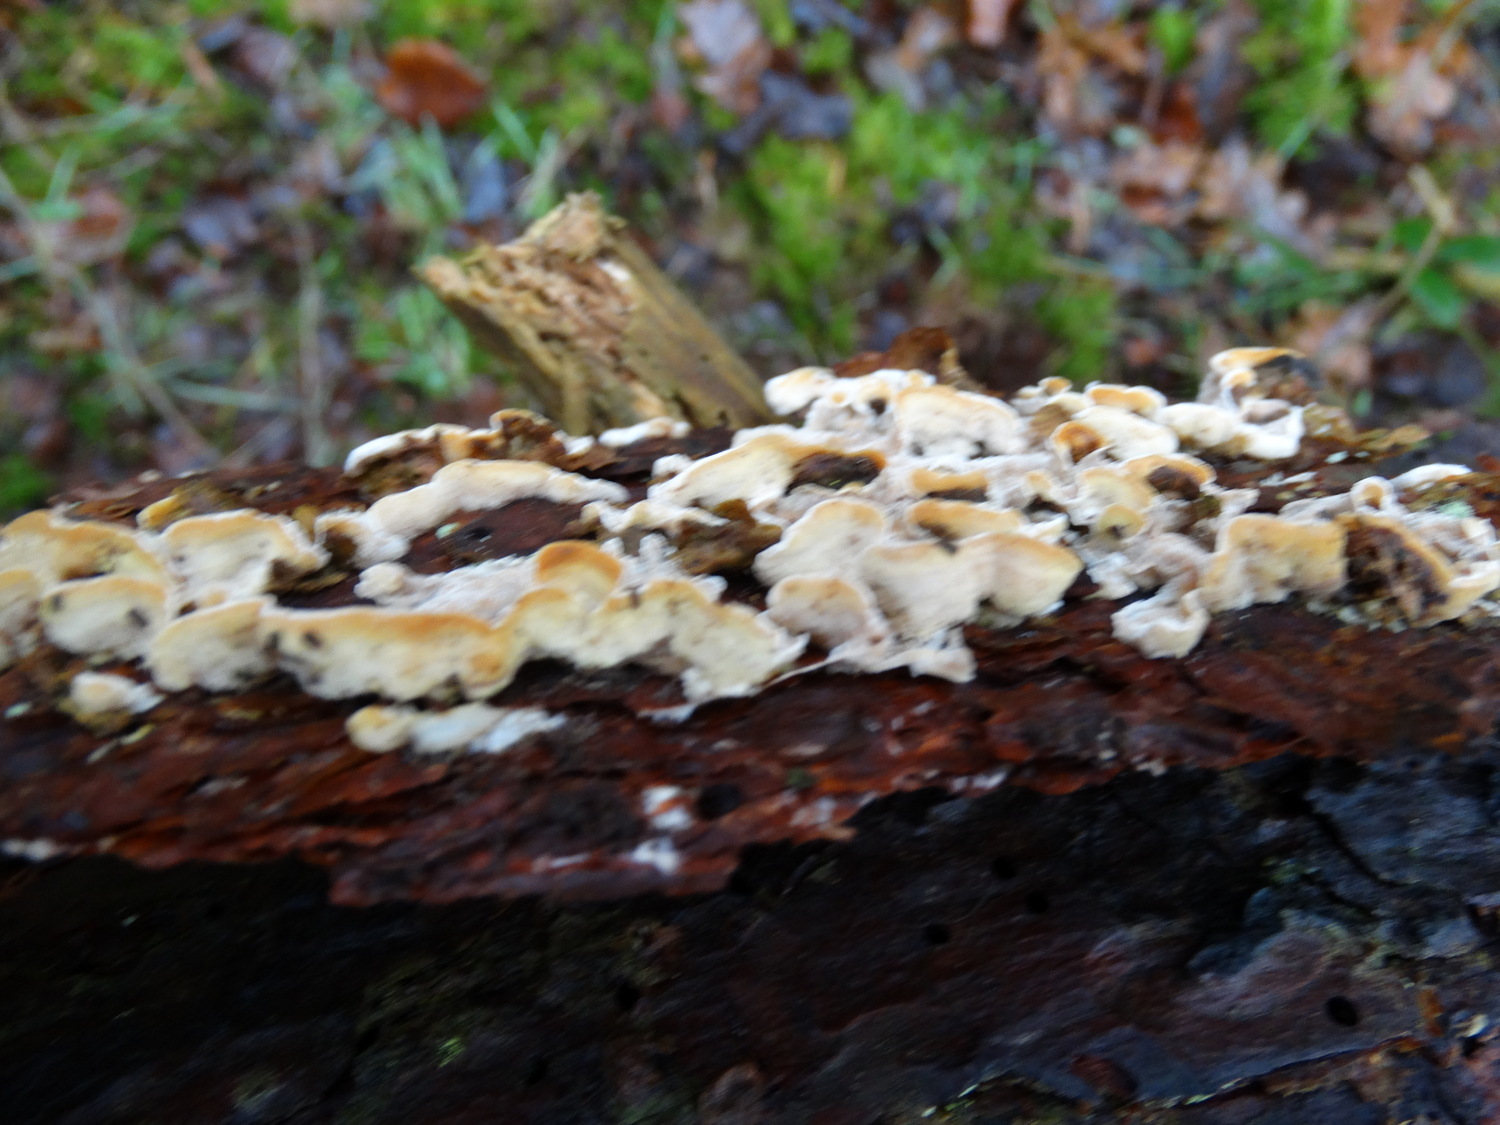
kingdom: Fungi
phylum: Basidiomycota
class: Agaricomycetes
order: Polyporales
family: Incrustoporiaceae
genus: Skeletocutis
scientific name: Skeletocutis amorpha
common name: orange krystalporesvamp
